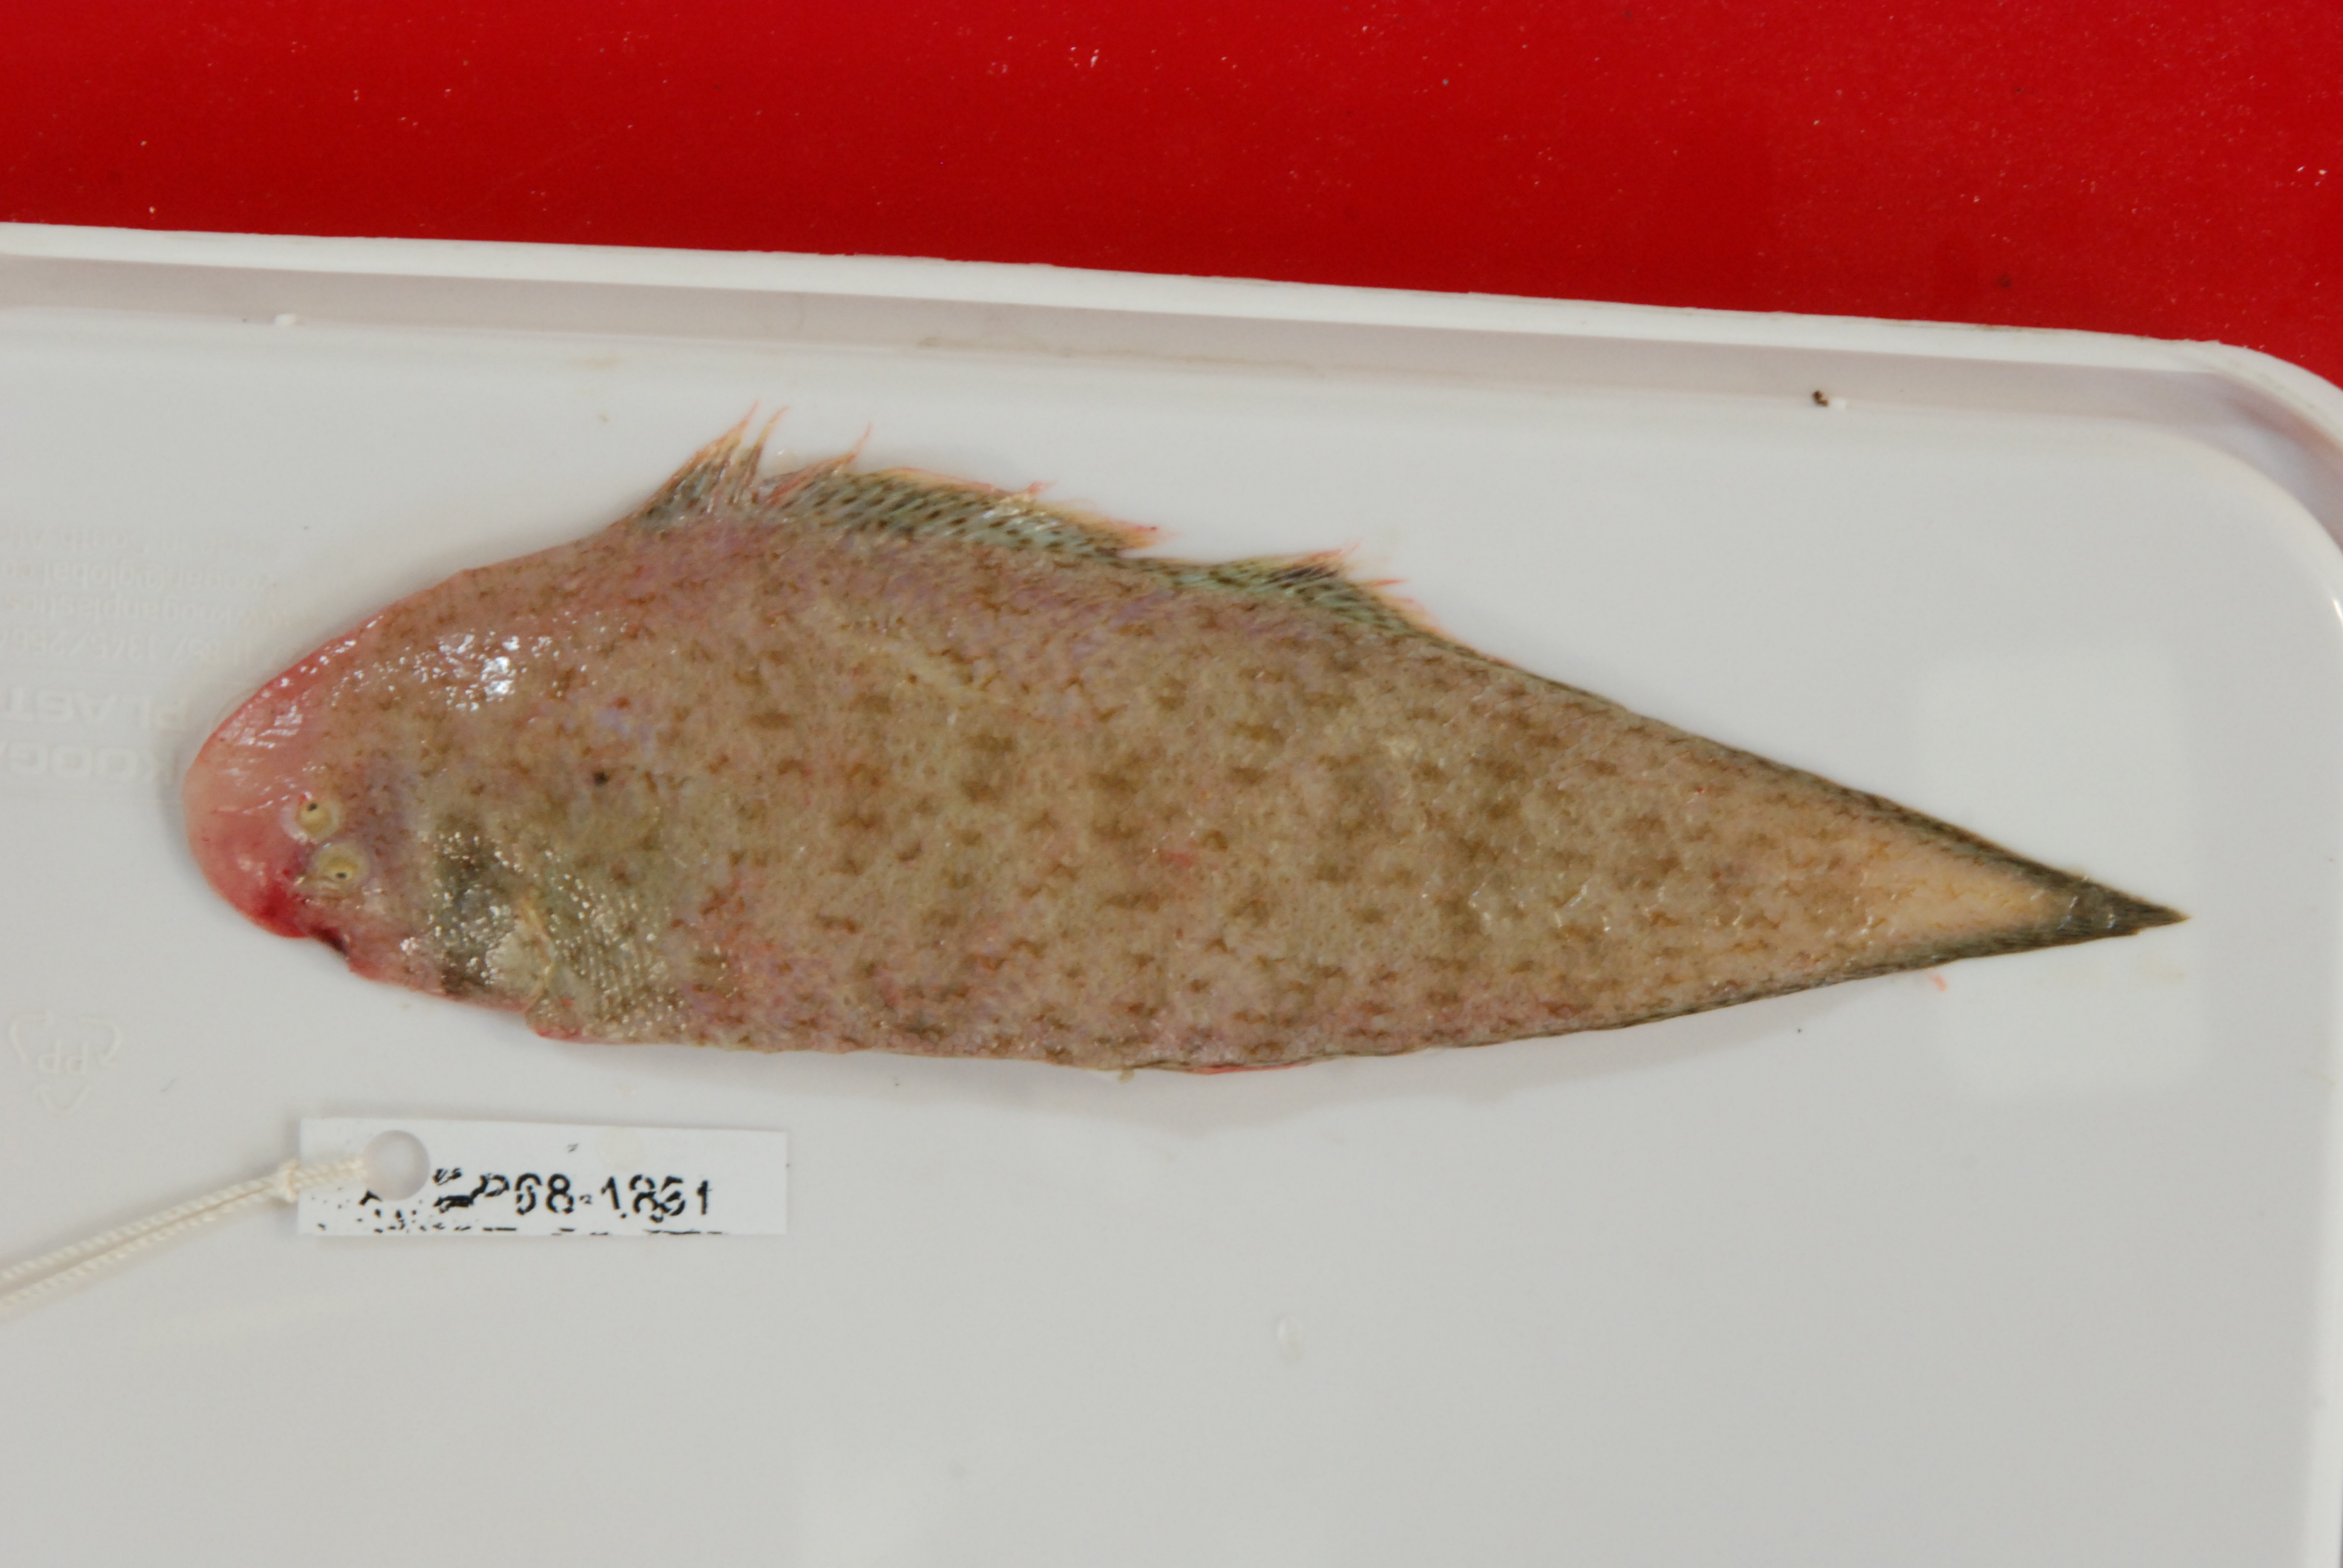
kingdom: Animalia
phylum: Chordata
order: Pleuronectiformes
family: Cynoglossidae
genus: Cynoglossus
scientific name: Cynoglossus
